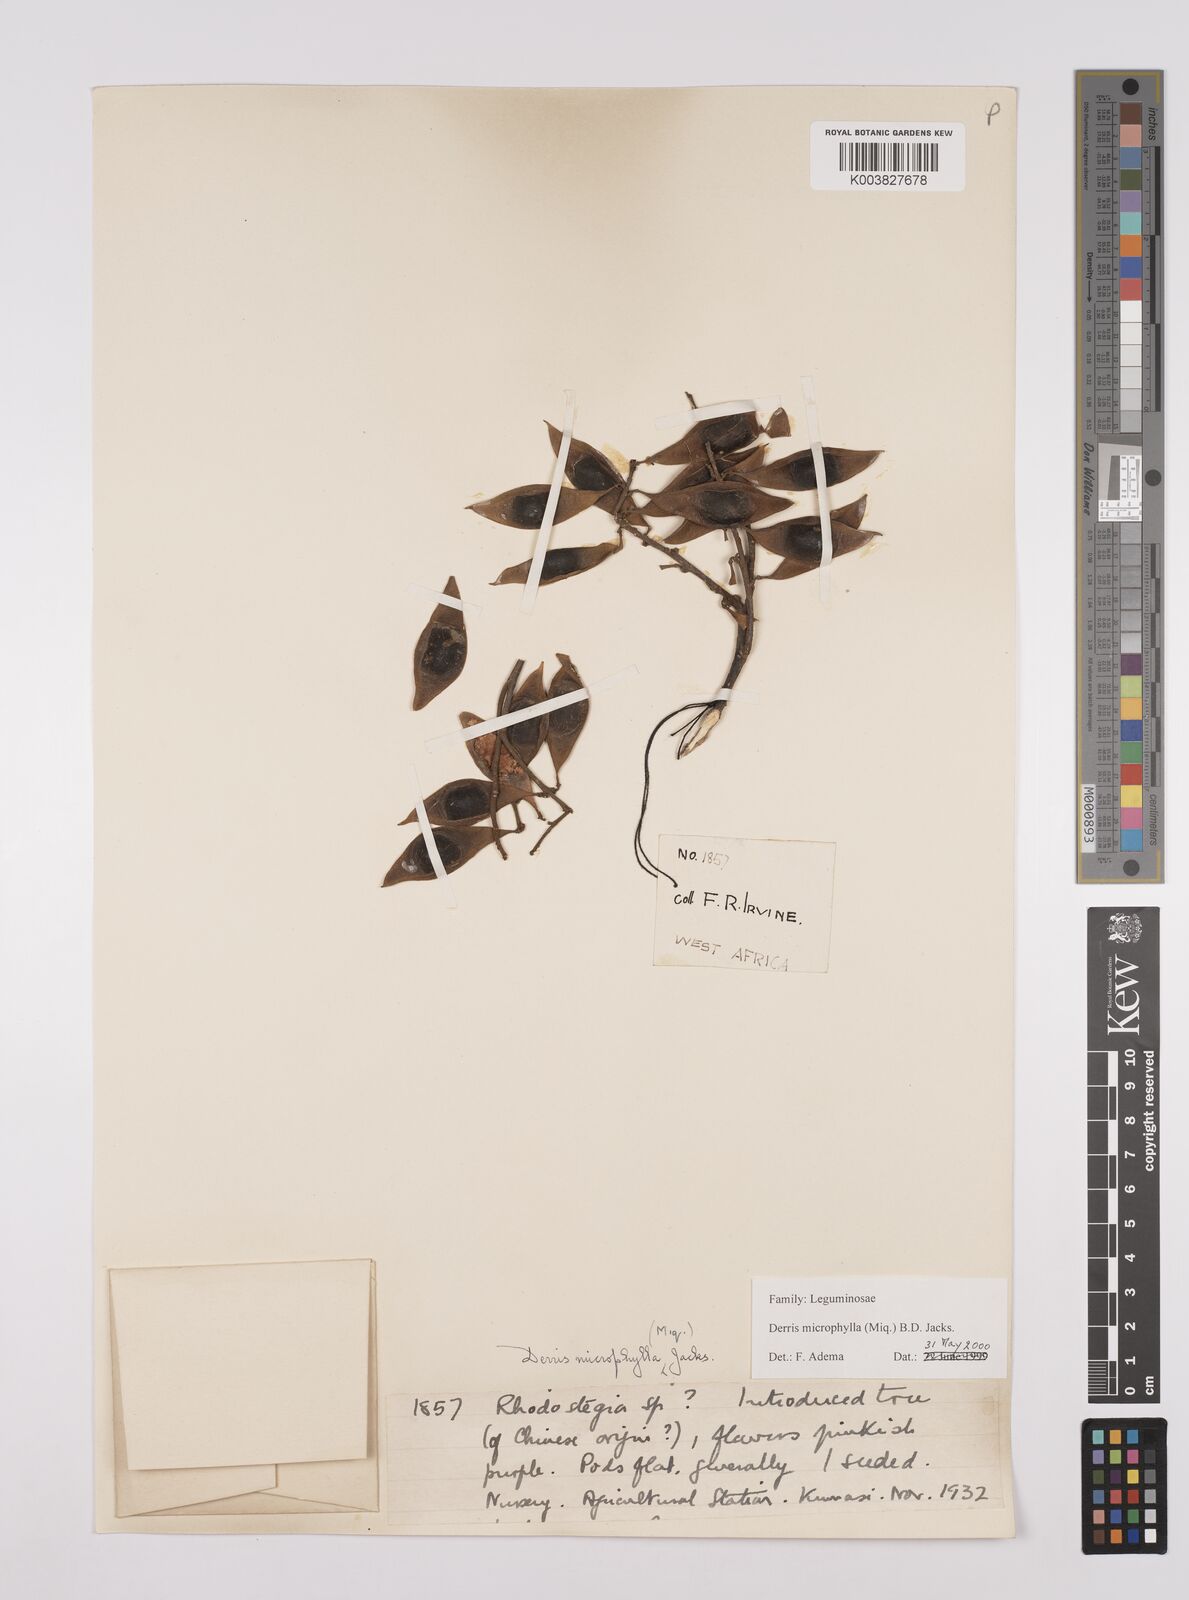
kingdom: Plantae
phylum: Tracheophyta
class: Magnoliopsida
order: Fabales
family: Fabaceae
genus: Derris
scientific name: Derris
